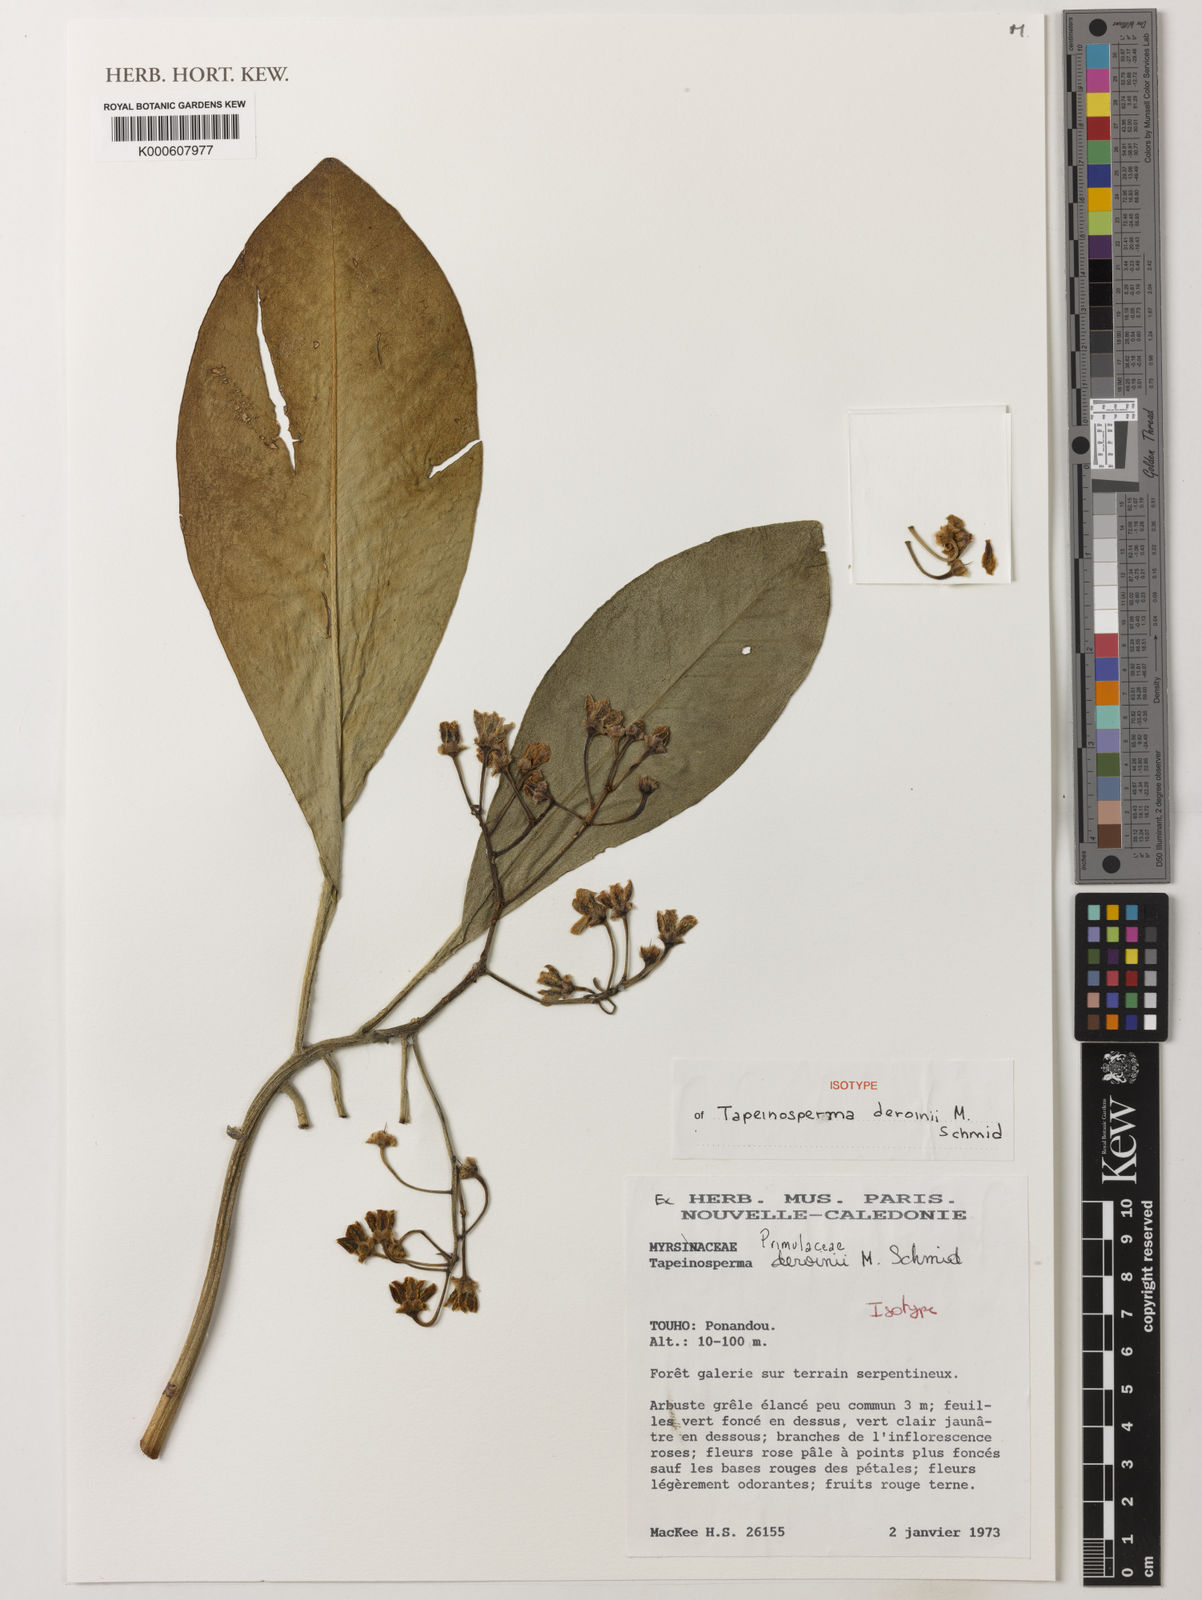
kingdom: Plantae
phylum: Tracheophyta
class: Magnoliopsida
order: Ericales
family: Primulaceae
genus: Tapeinosperma
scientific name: Tapeinosperma deroinii
